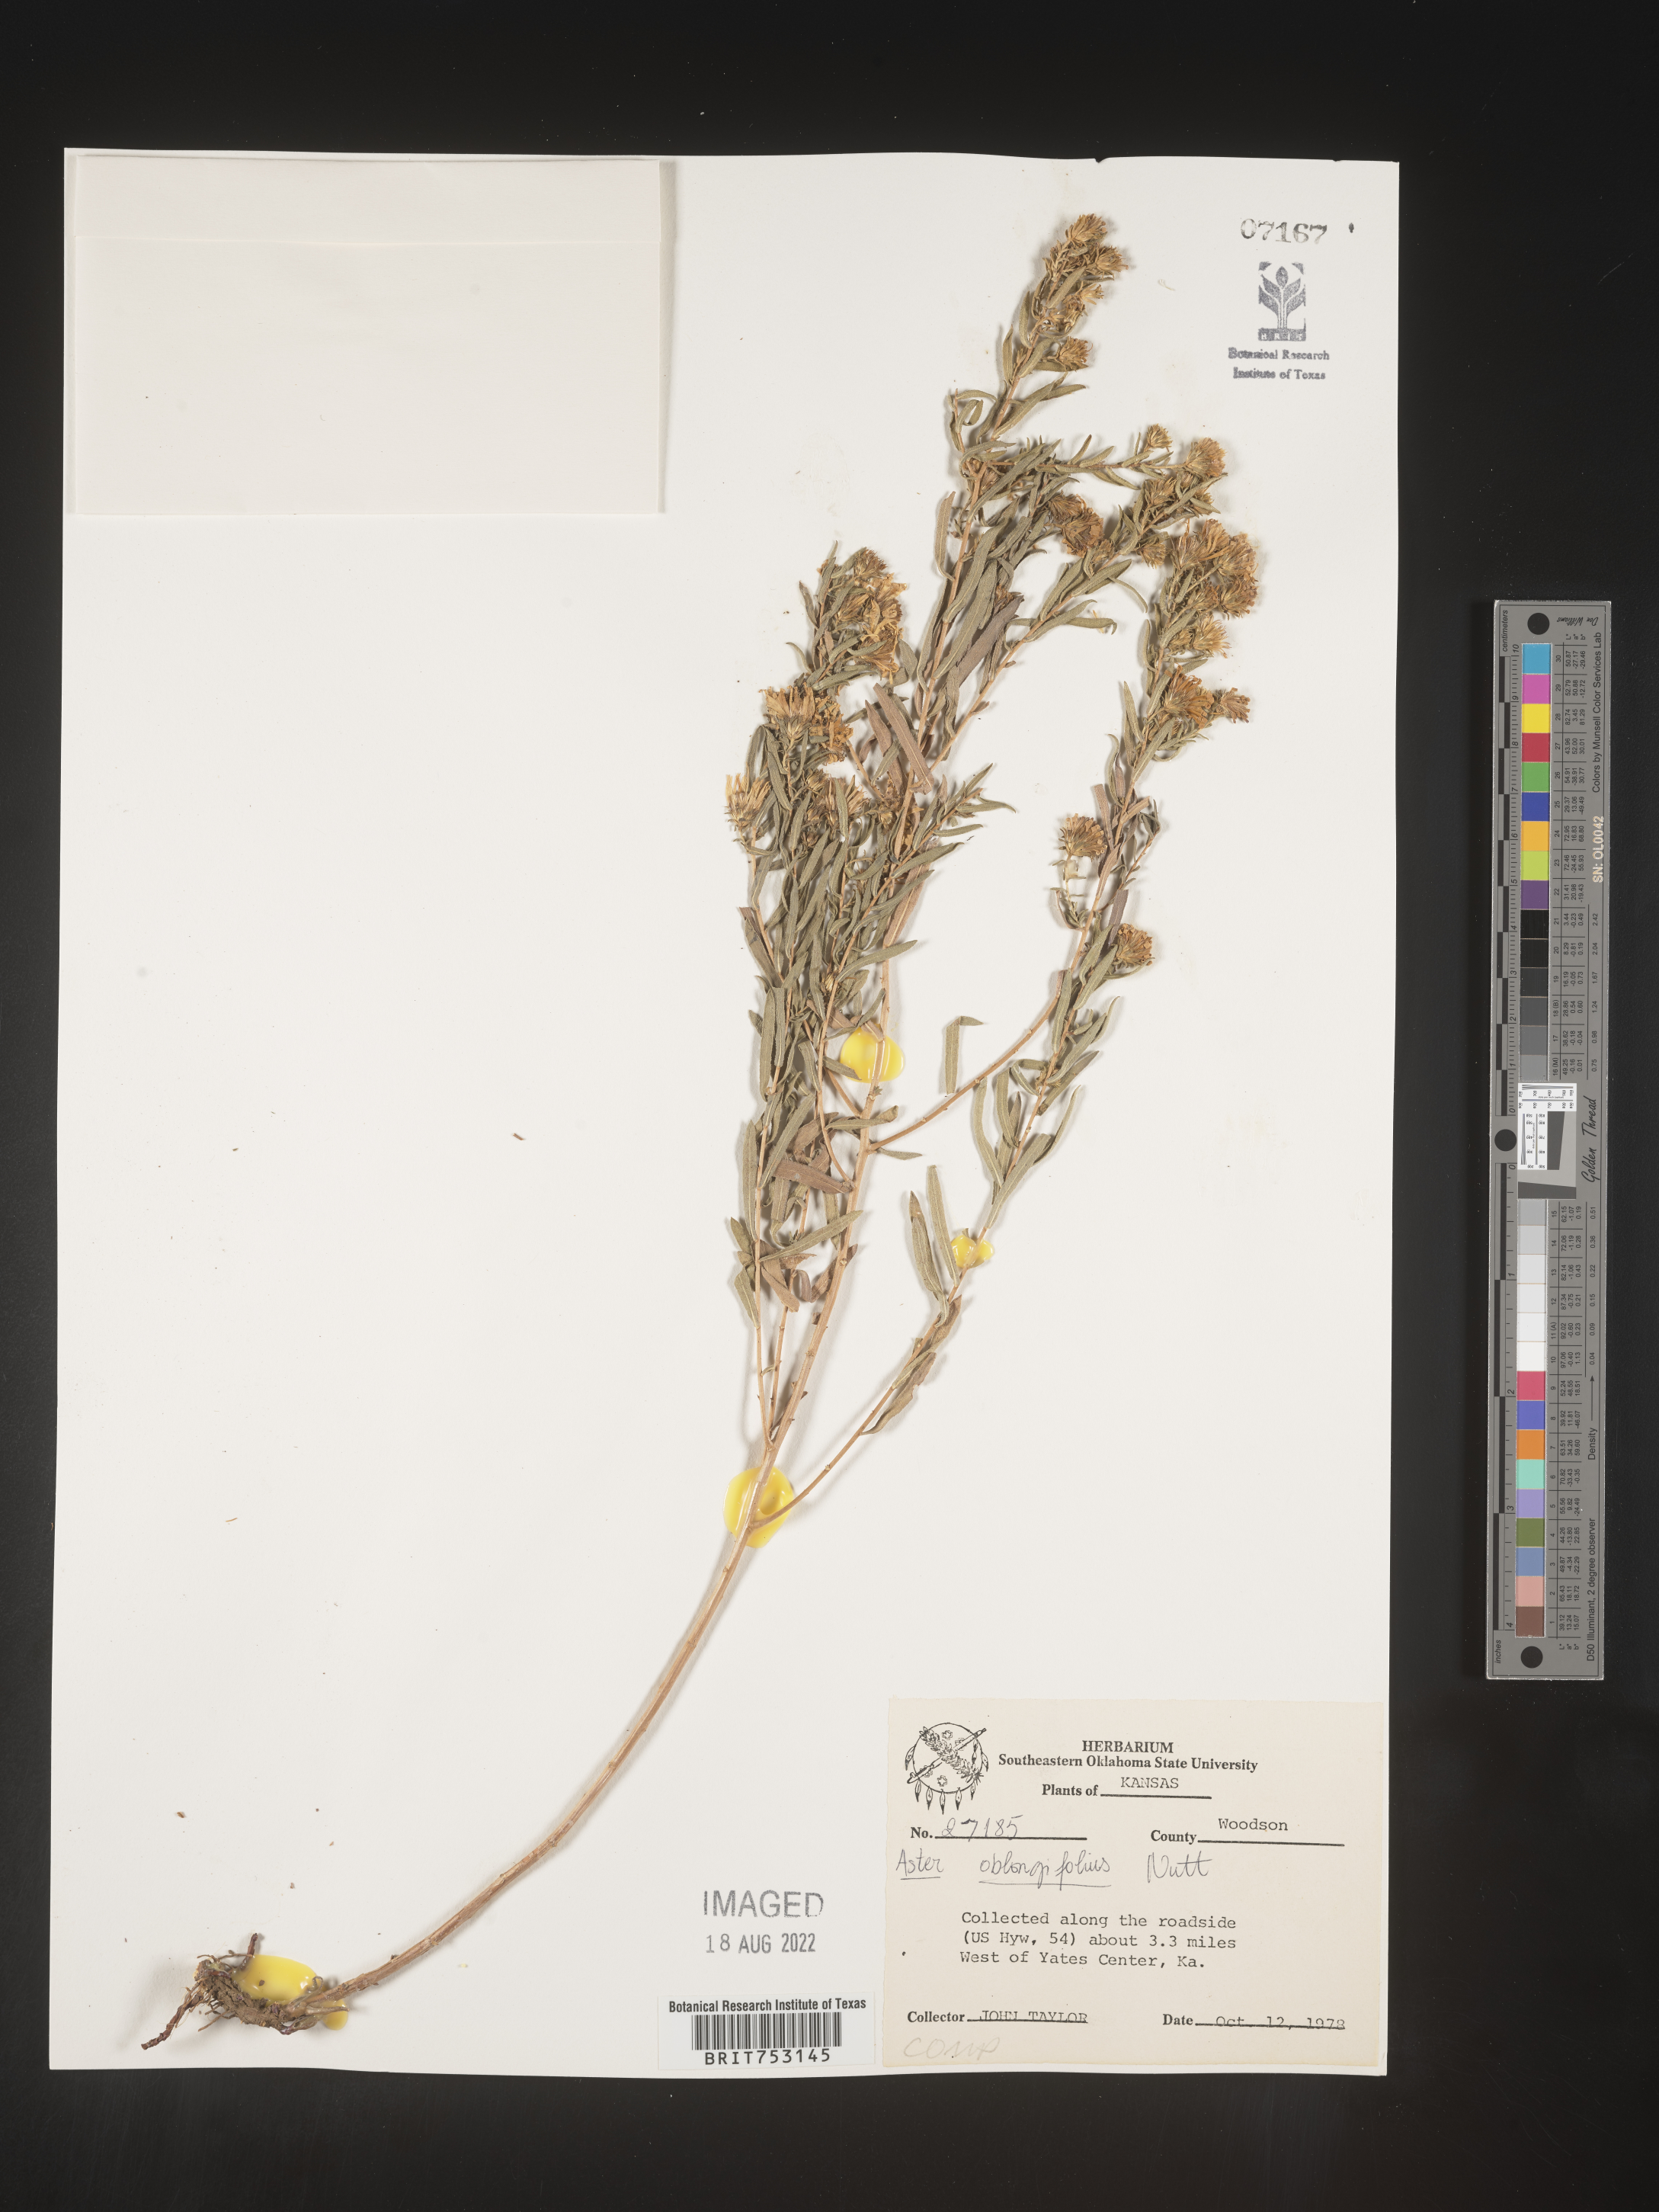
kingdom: Plantae
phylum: Tracheophyta
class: Magnoliopsida
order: Asterales
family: Asteraceae
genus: Symphyotrichum
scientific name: Symphyotrichum oblongifolium
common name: Aromatic aster
